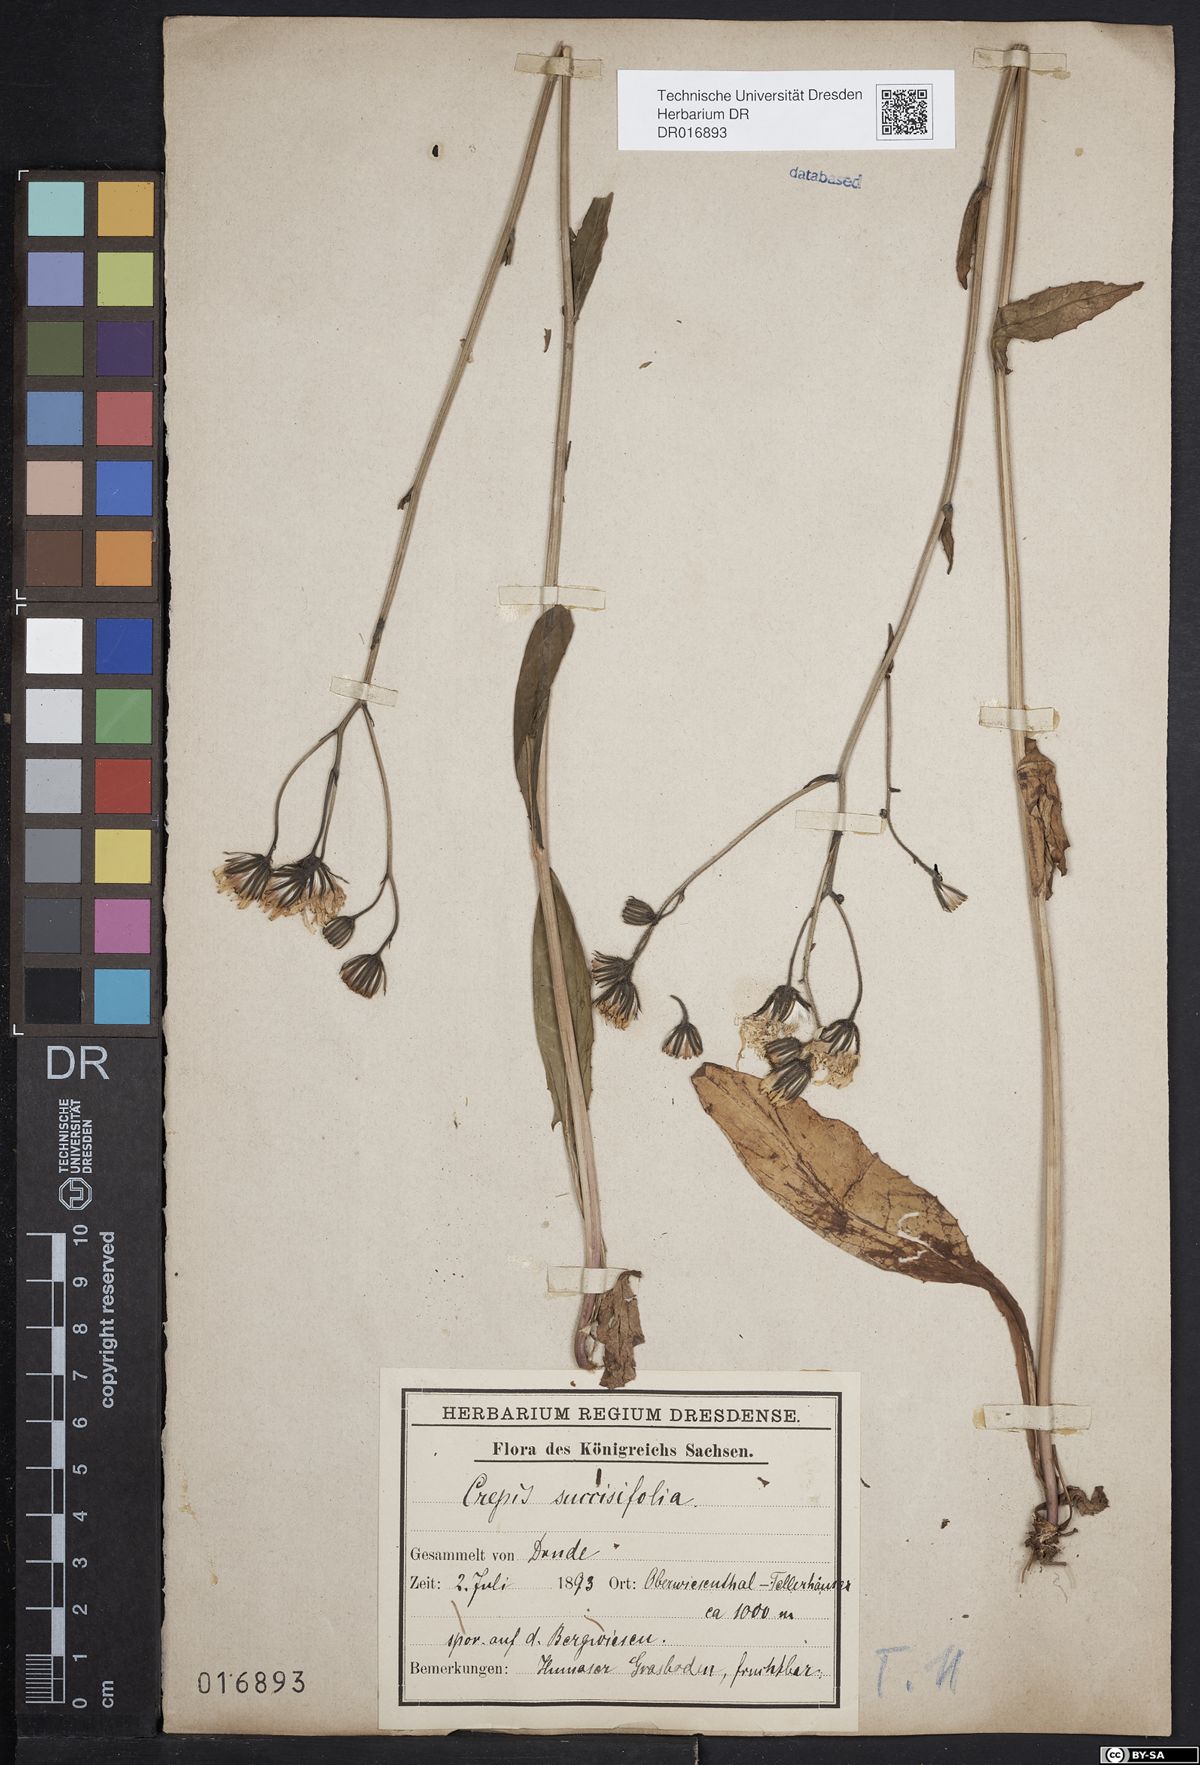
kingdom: Plantae
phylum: Tracheophyta
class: Magnoliopsida
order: Asterales
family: Asteraceae
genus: Crepis
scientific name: Crepis mollis
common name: Northern hawk's-beard
